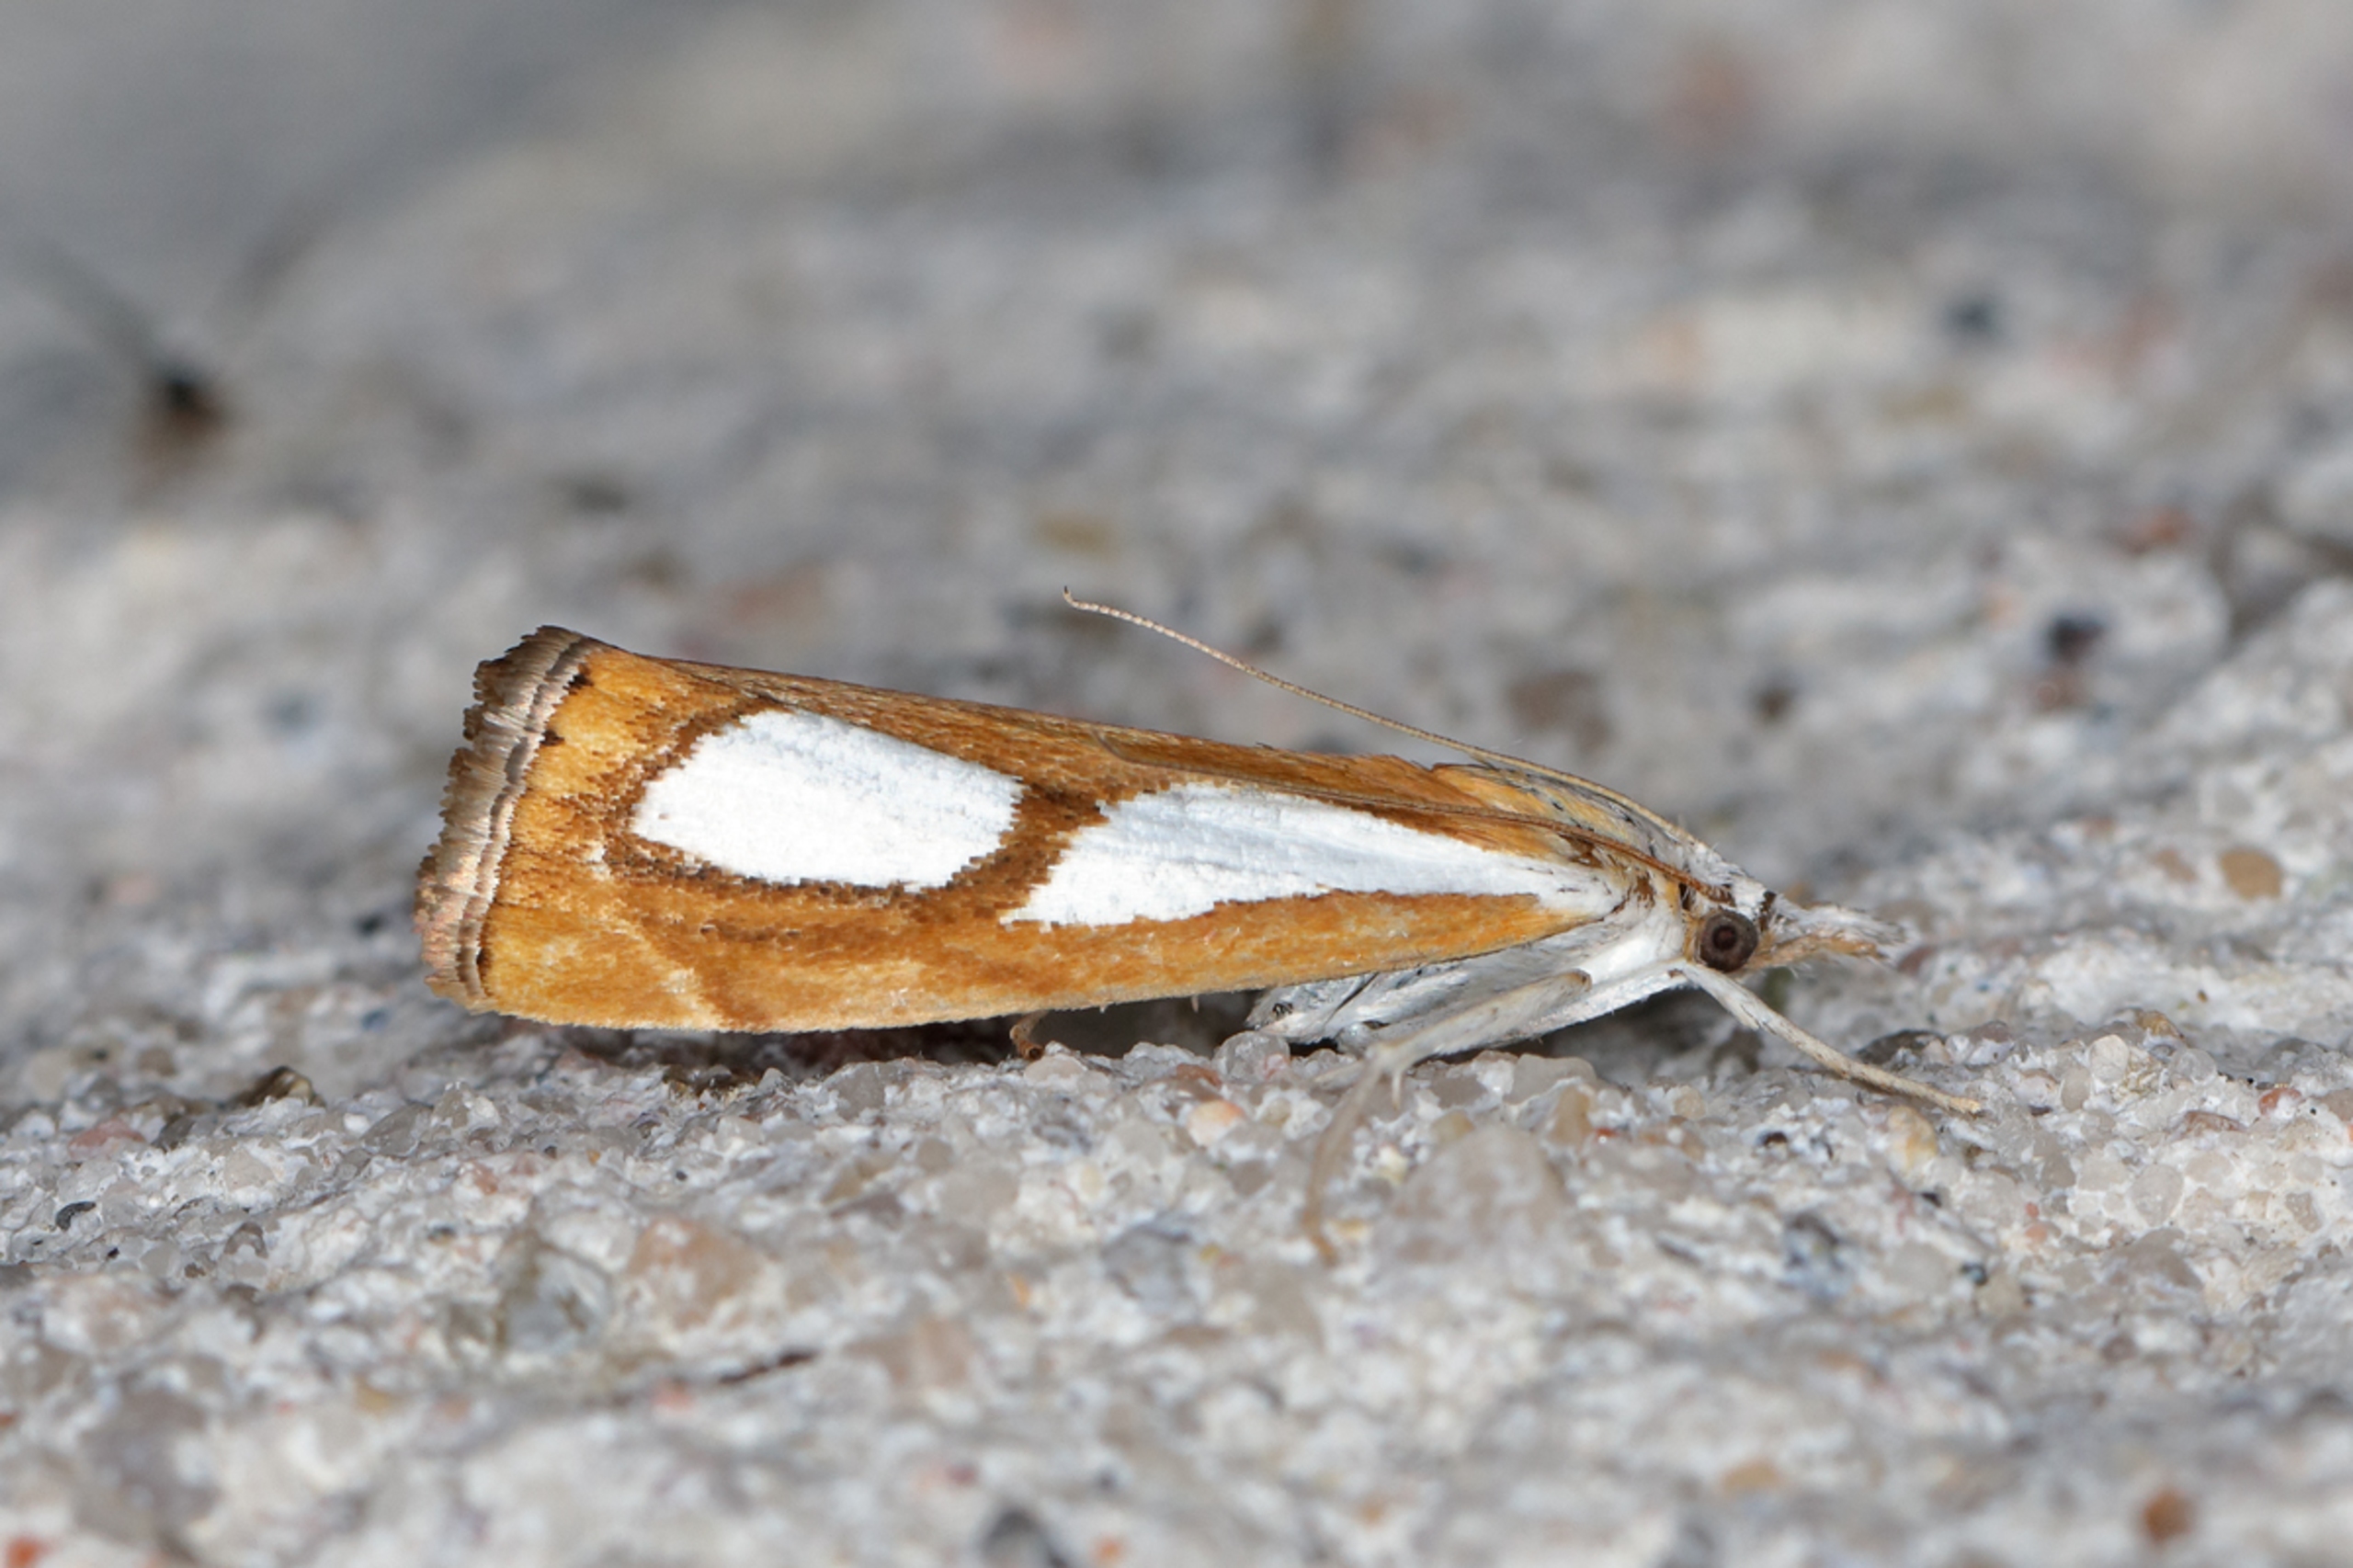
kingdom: Animalia
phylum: Arthropoda
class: Insecta
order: Lepidoptera
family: Crambidae
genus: Catoptria
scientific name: Catoptria pinella
